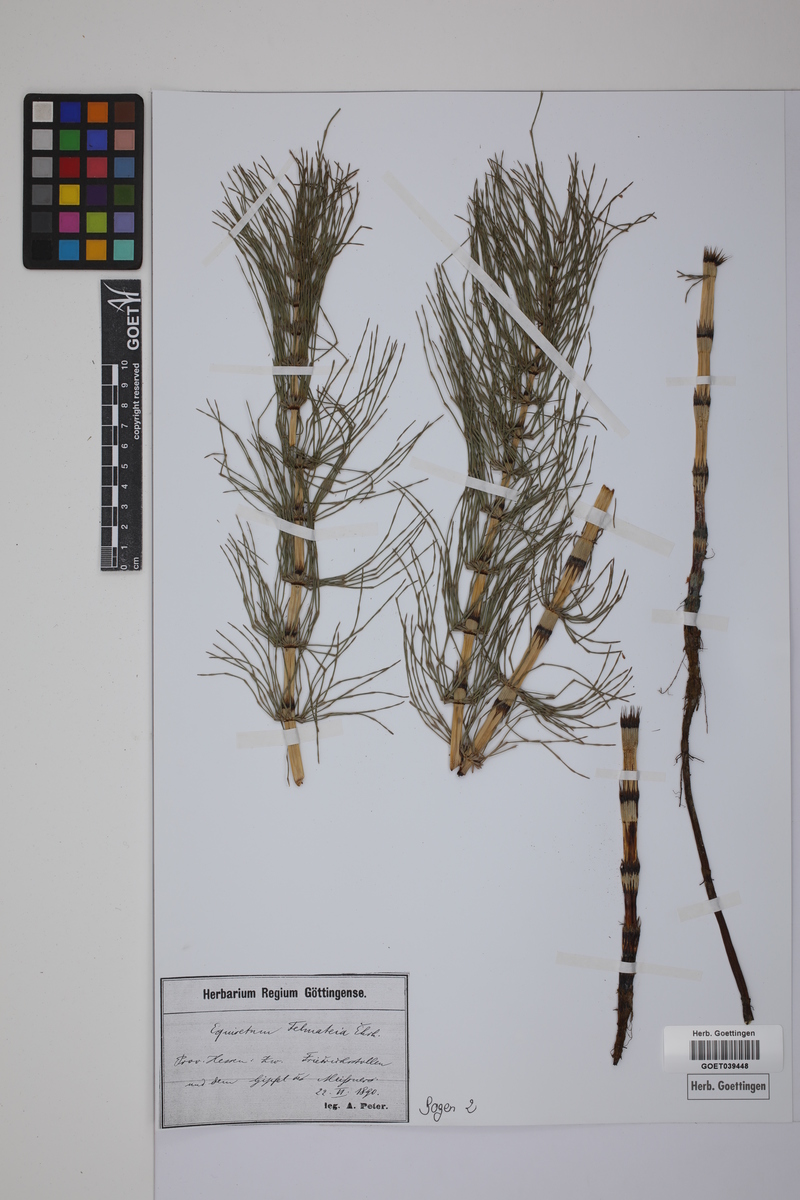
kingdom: Plantae
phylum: Tracheophyta
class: Polypodiopsida
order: Equisetales
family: Equisetaceae
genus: Equisetum
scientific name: Equisetum telmateia
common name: Great horsetail
